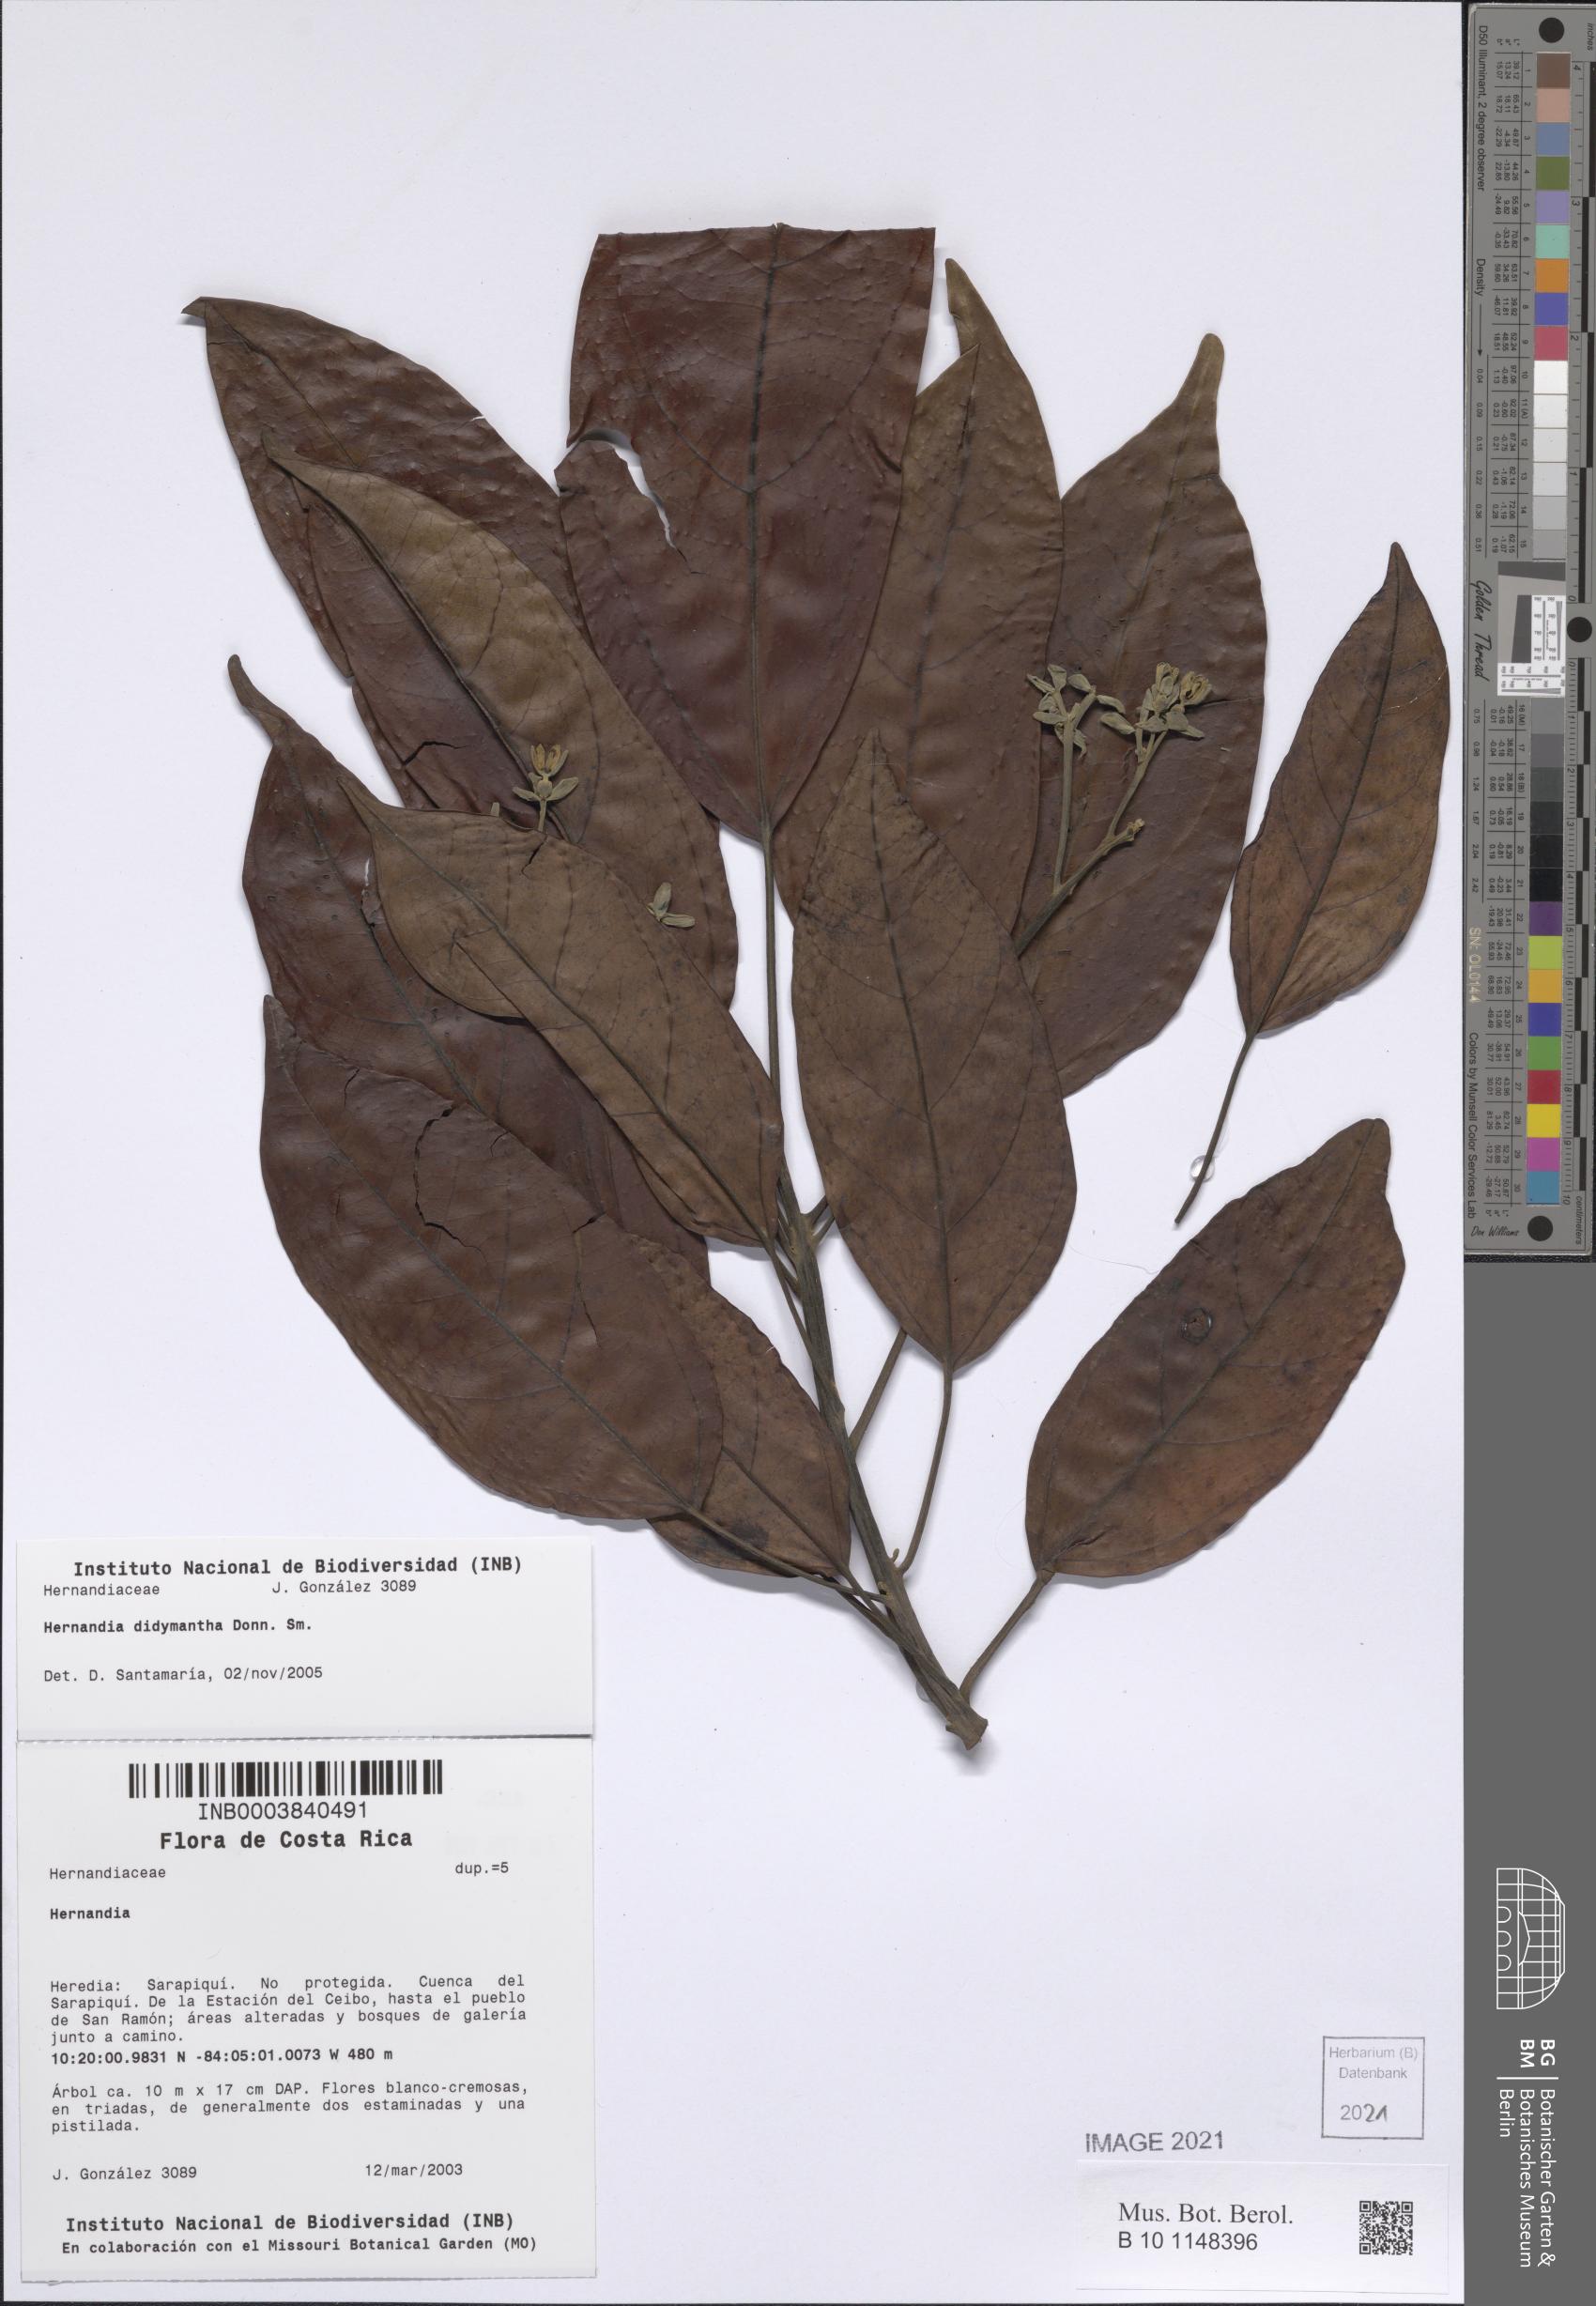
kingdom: Plantae
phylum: Tracheophyta
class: Magnoliopsida
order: Laurales
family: Hernandiaceae
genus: Hernandia
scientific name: Hernandia didymantha
